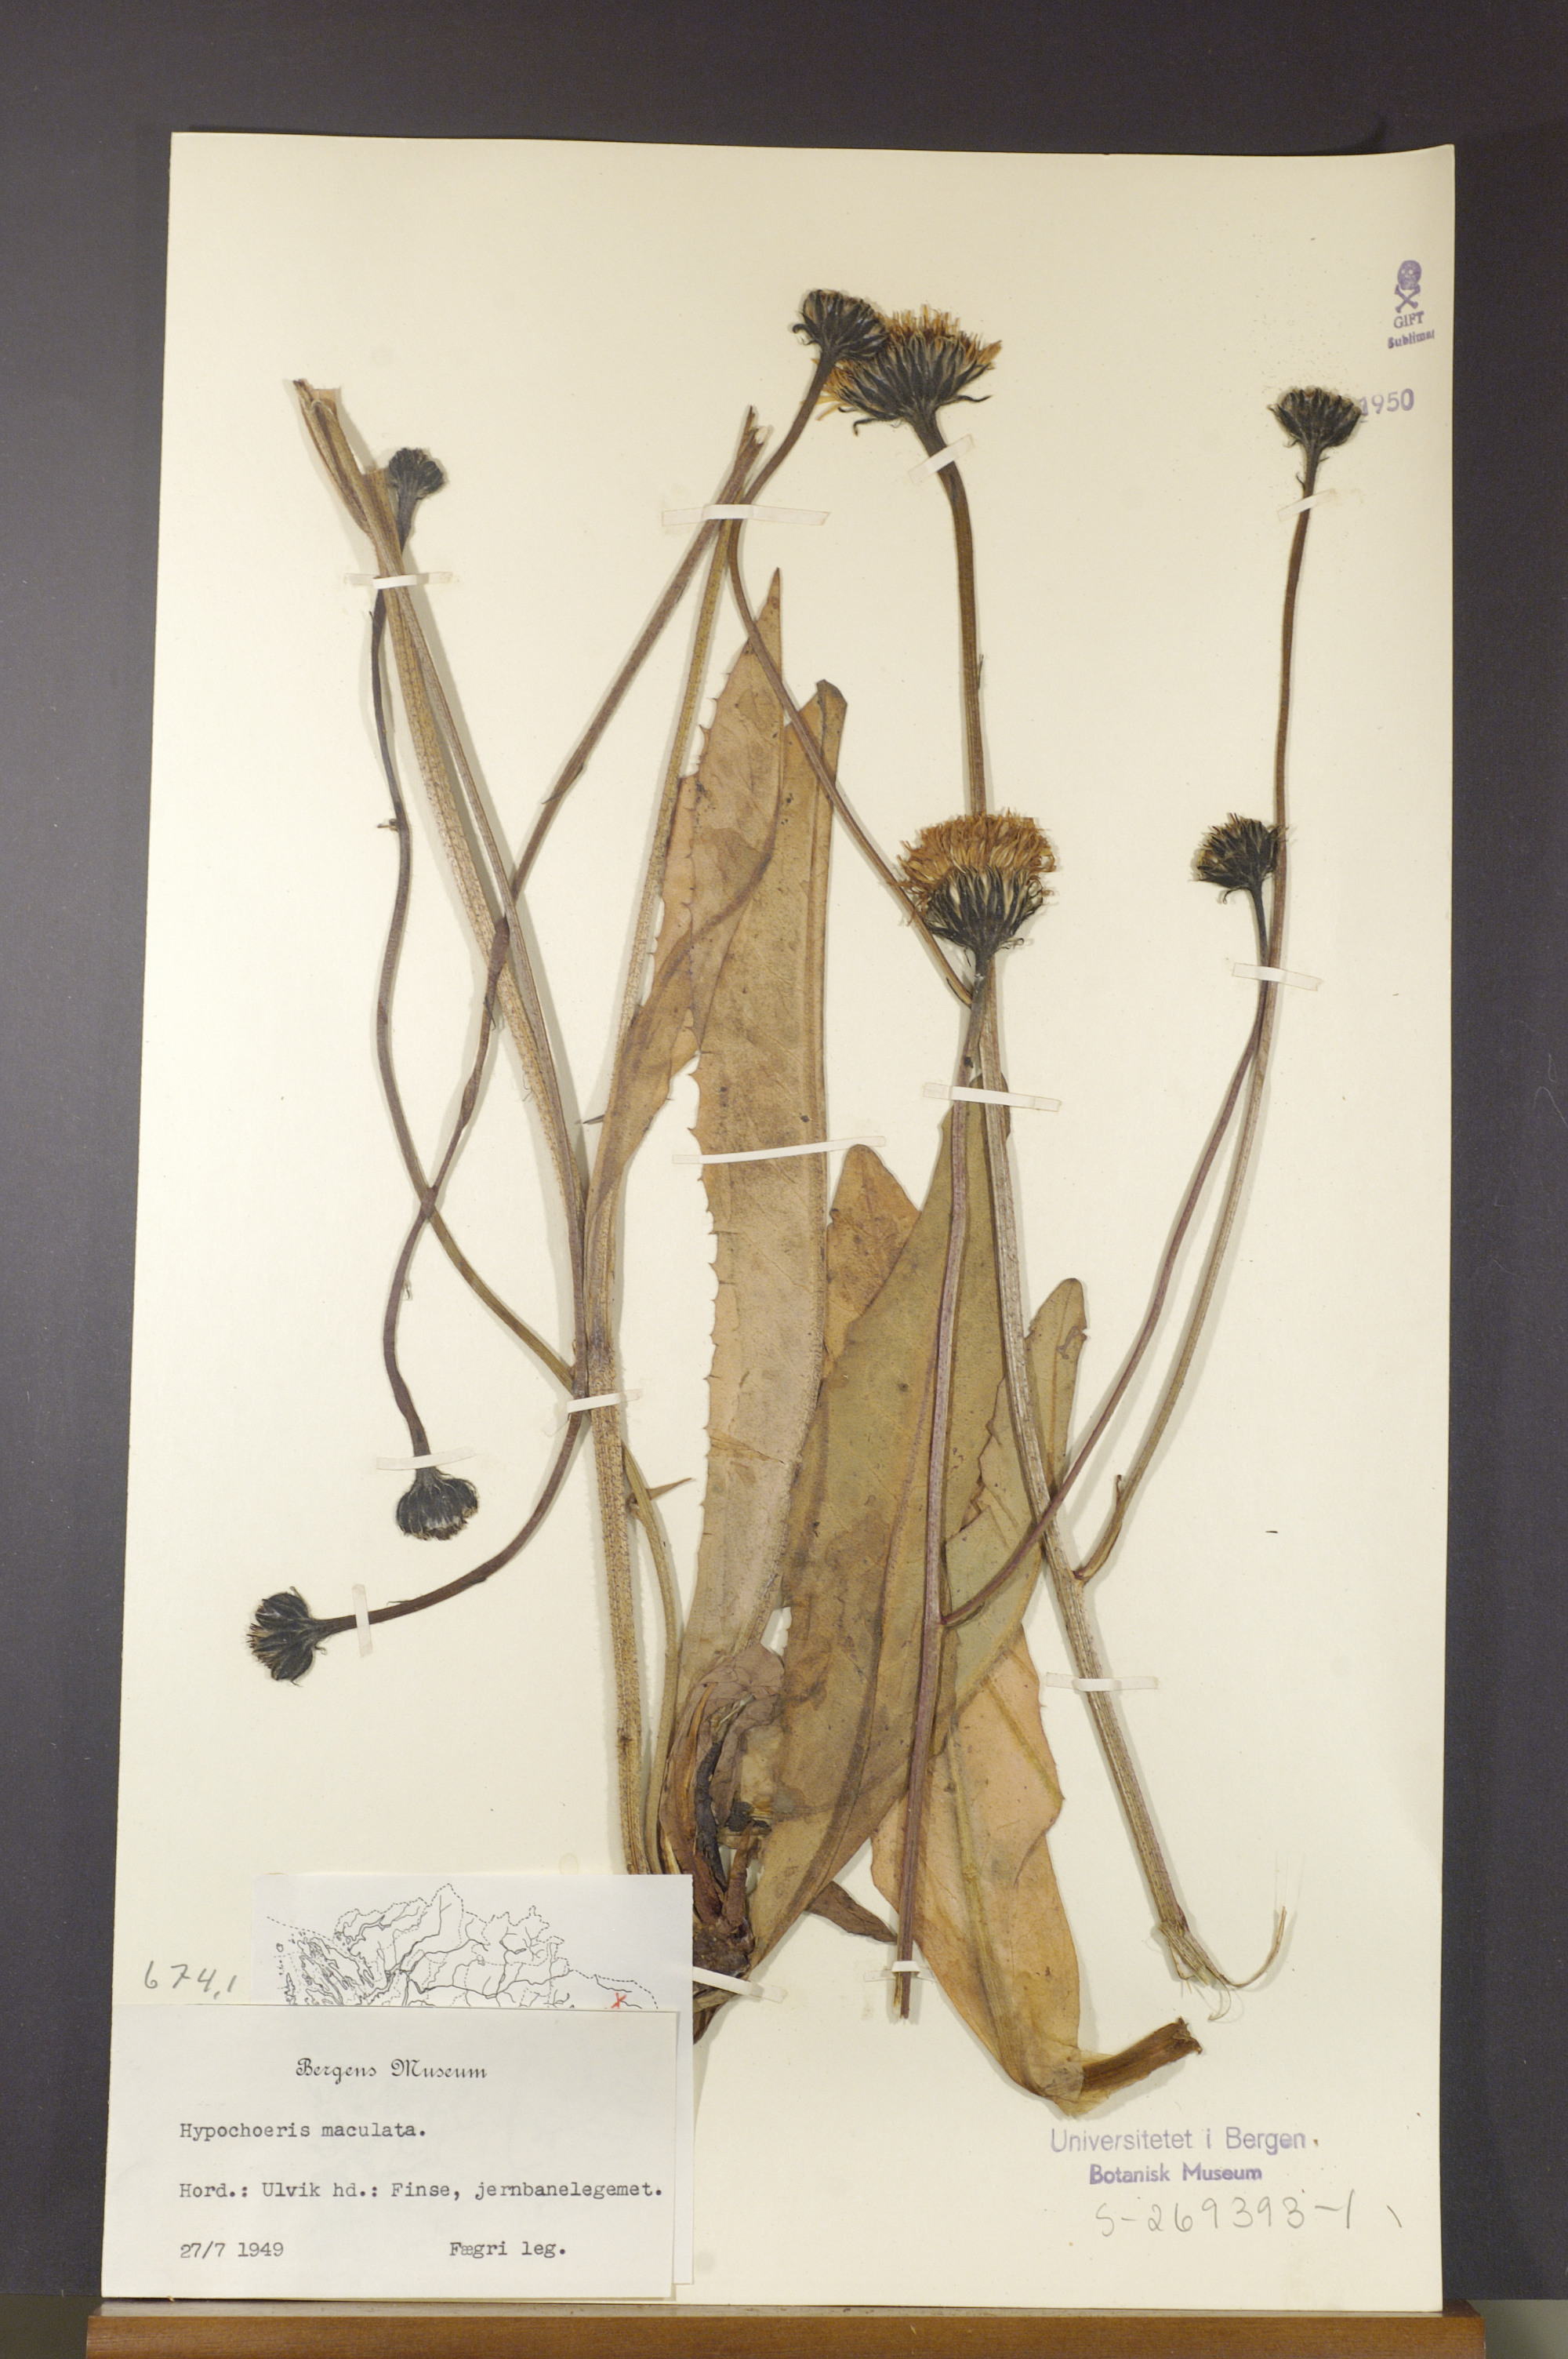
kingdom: Plantae
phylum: Tracheophyta
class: Magnoliopsida
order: Asterales
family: Asteraceae
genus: Trommsdorffia
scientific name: Trommsdorffia maculata
